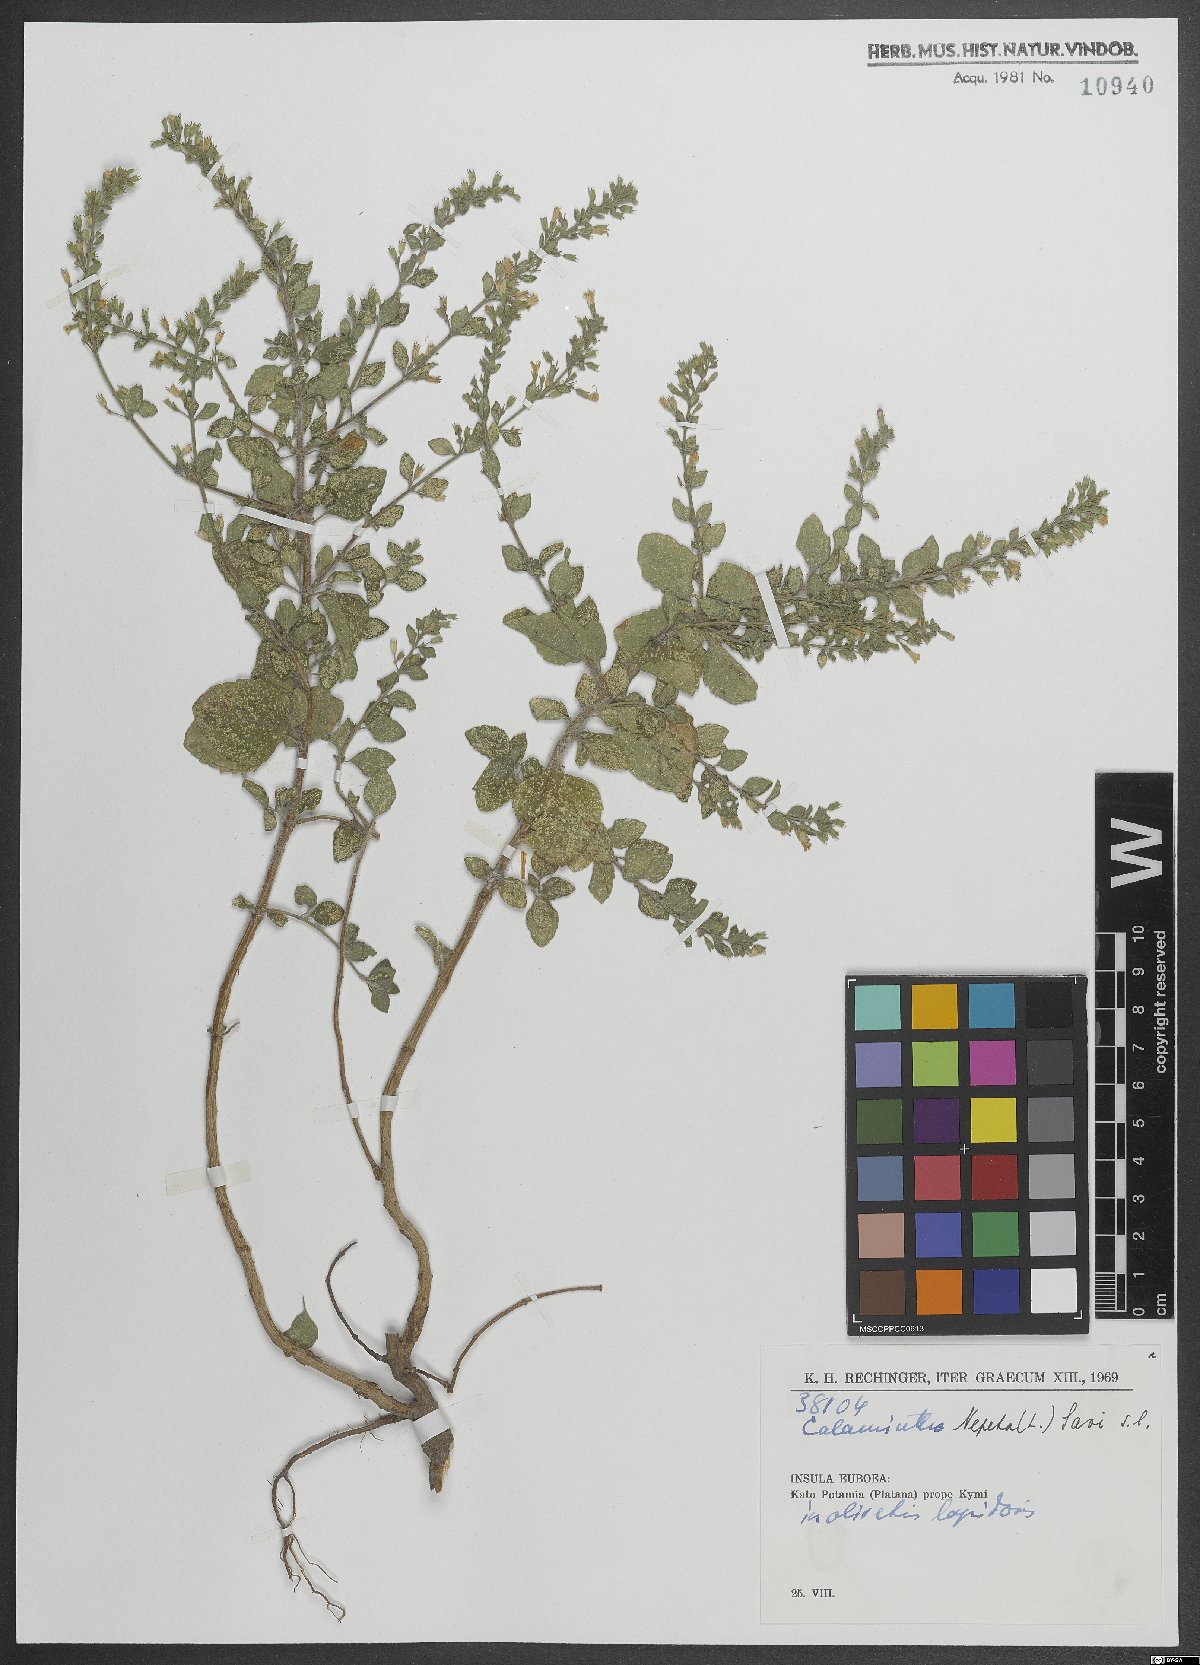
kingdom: Plantae
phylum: Tracheophyta
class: Magnoliopsida
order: Lamiales
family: Lamiaceae
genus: Clinopodium
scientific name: Clinopodium nepeta
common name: Lesser calamint
